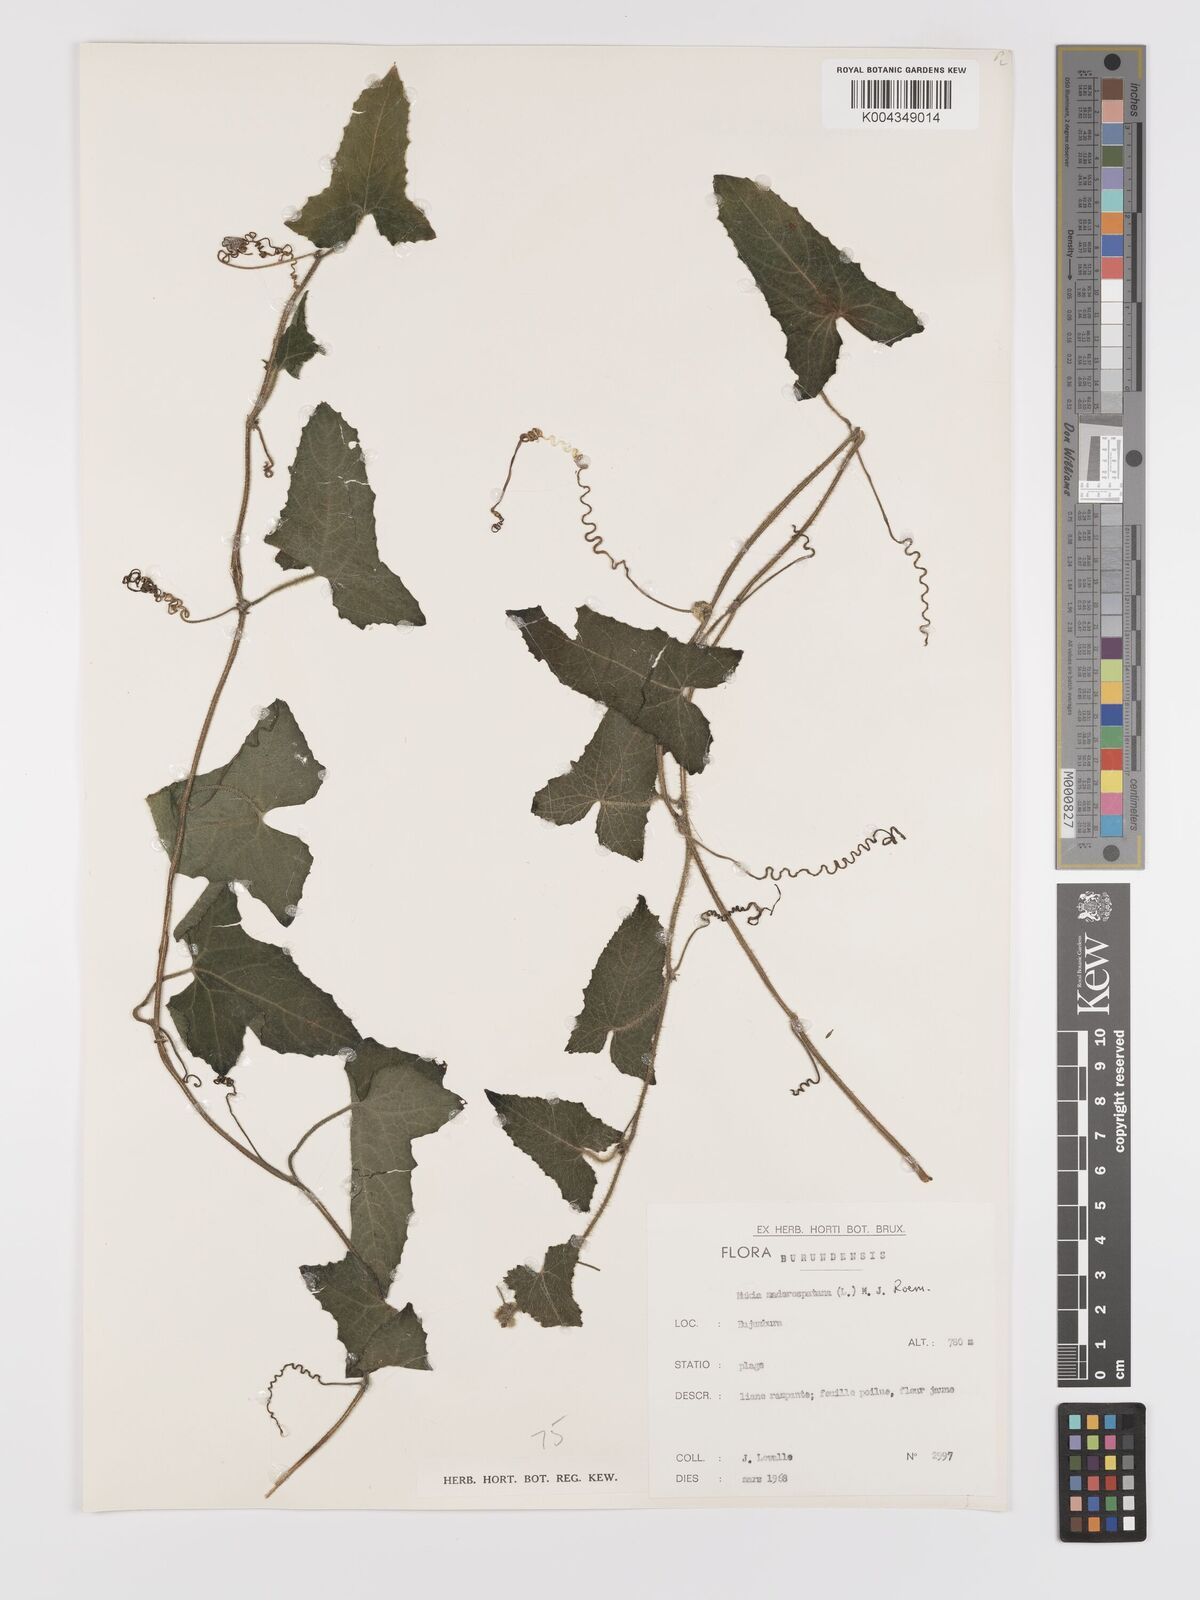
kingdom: Plantae
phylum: Tracheophyta
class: Magnoliopsida
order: Cucurbitales
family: Cucurbitaceae
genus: Cucumis
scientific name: Cucumis maderaspatanus
